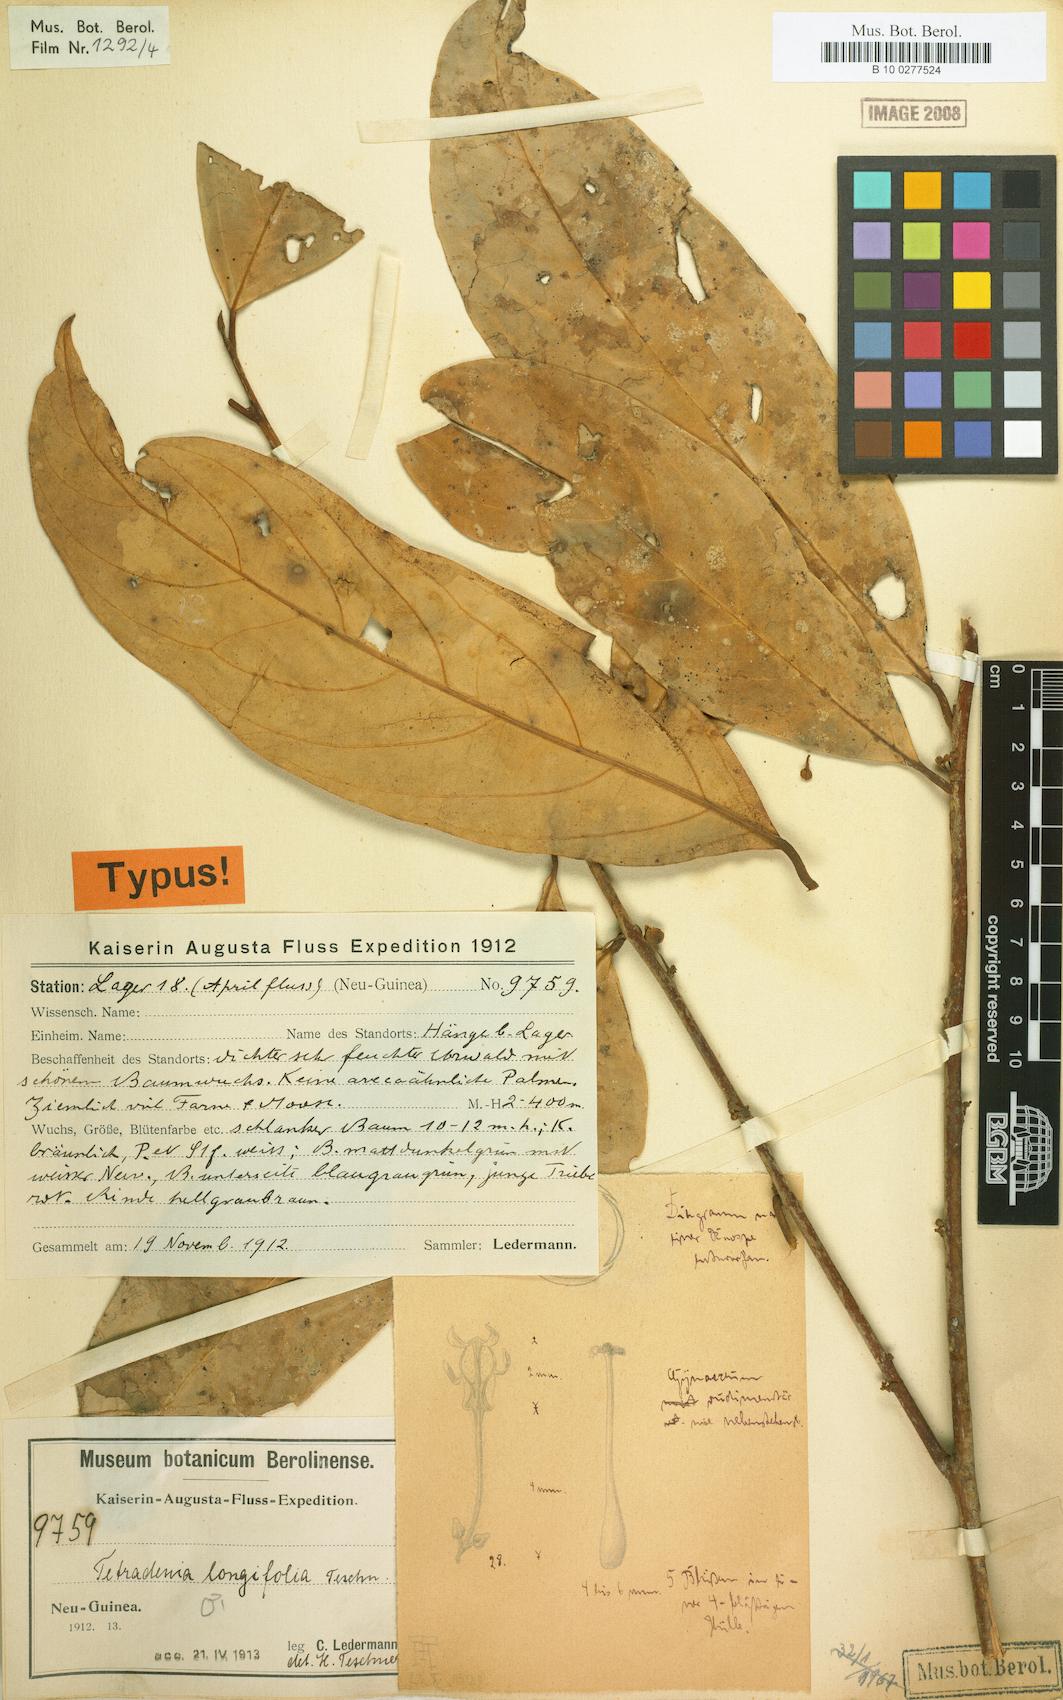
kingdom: Plantae
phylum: Tracheophyta
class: Magnoliopsida
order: Laurales
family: Lauraceae
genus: Neolitsea
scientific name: Neolitsea longifolia
